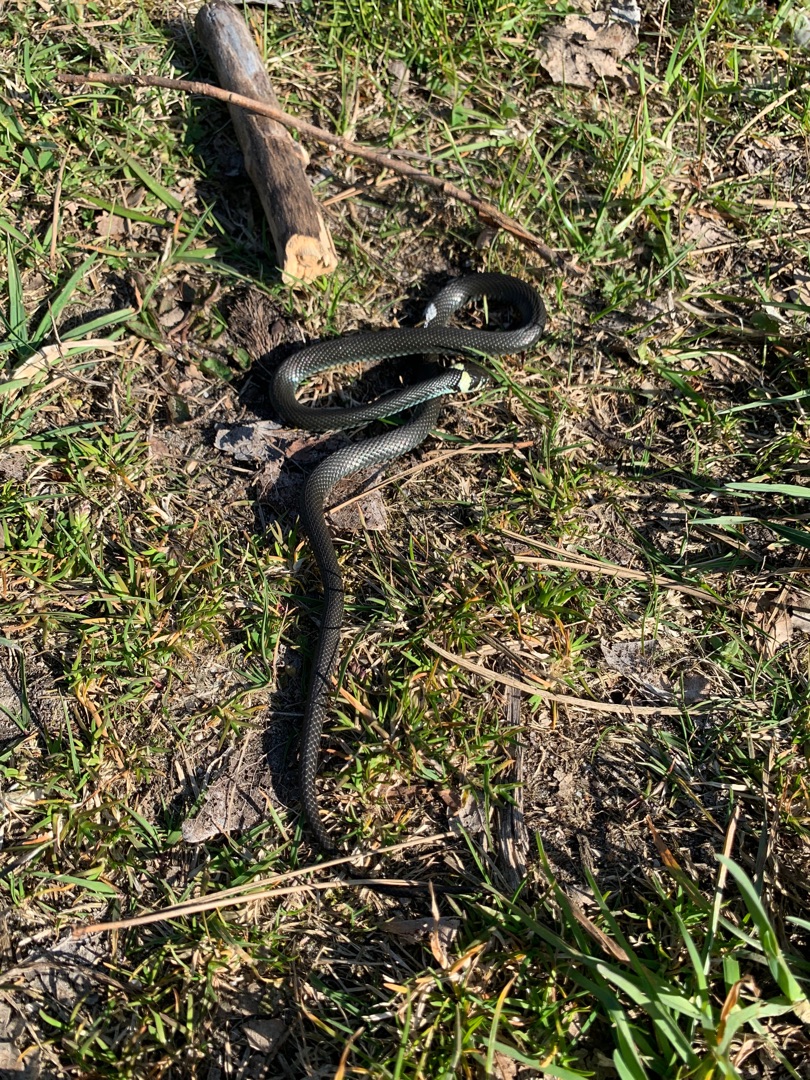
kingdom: Animalia
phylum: Chordata
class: Squamata
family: Colubridae
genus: Natrix
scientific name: Natrix natrix
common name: Snog
